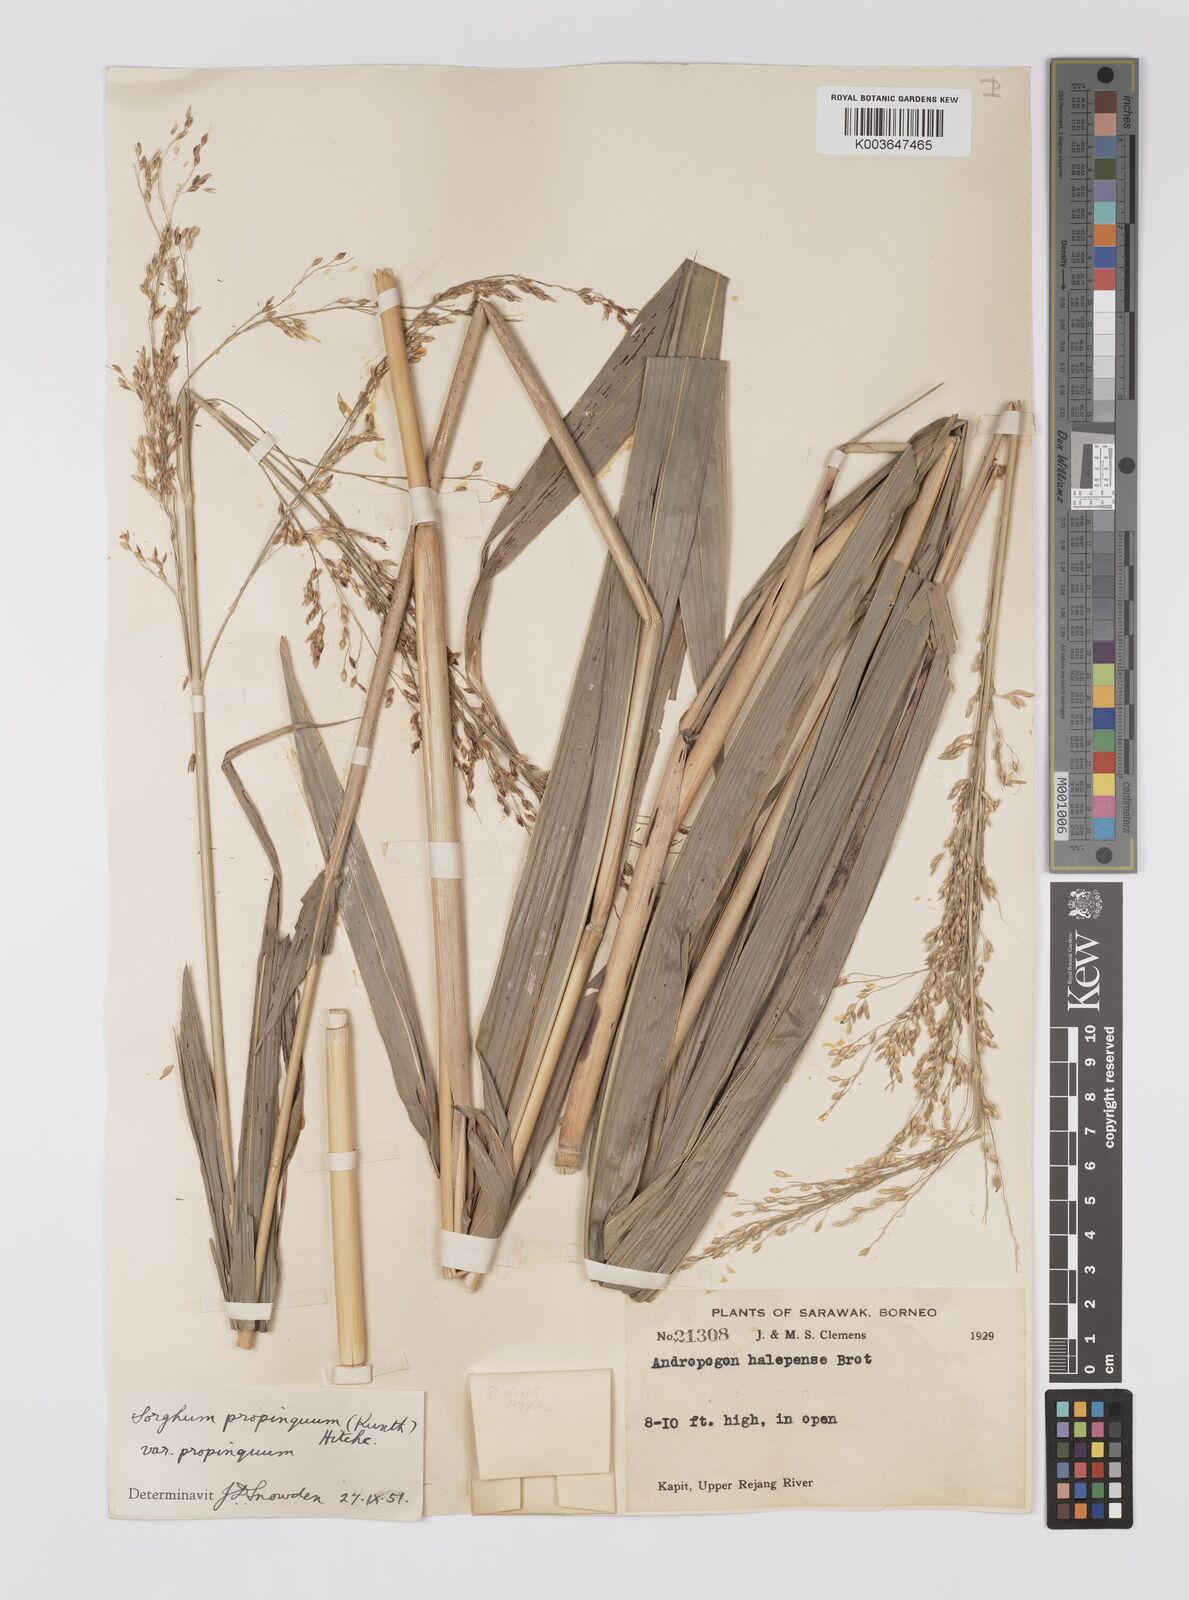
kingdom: Plantae
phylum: Tracheophyta
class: Liliopsida
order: Poales
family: Poaceae
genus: Sorghum
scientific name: Sorghum propinquum
